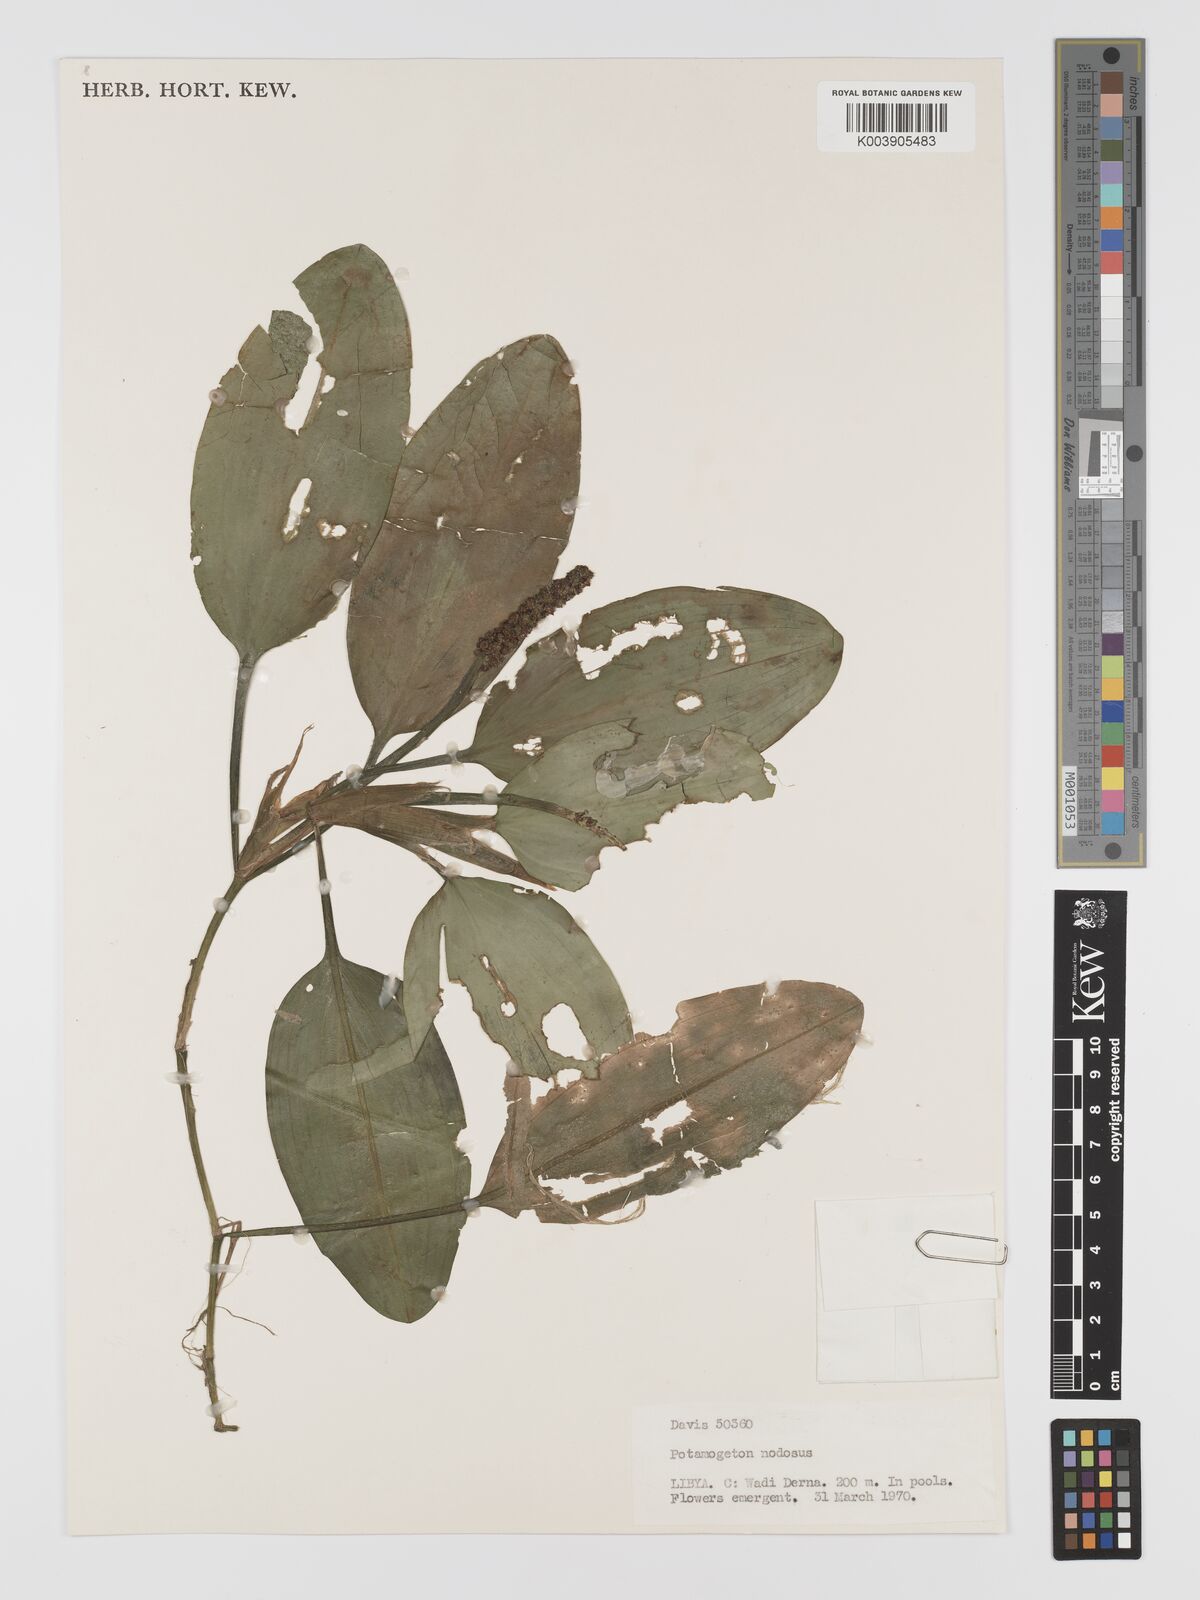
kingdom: Plantae
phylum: Tracheophyta
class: Liliopsida
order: Alismatales
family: Potamogetonaceae
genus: Potamogeton
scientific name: Potamogeton nodosus
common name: Loddon pondweed
